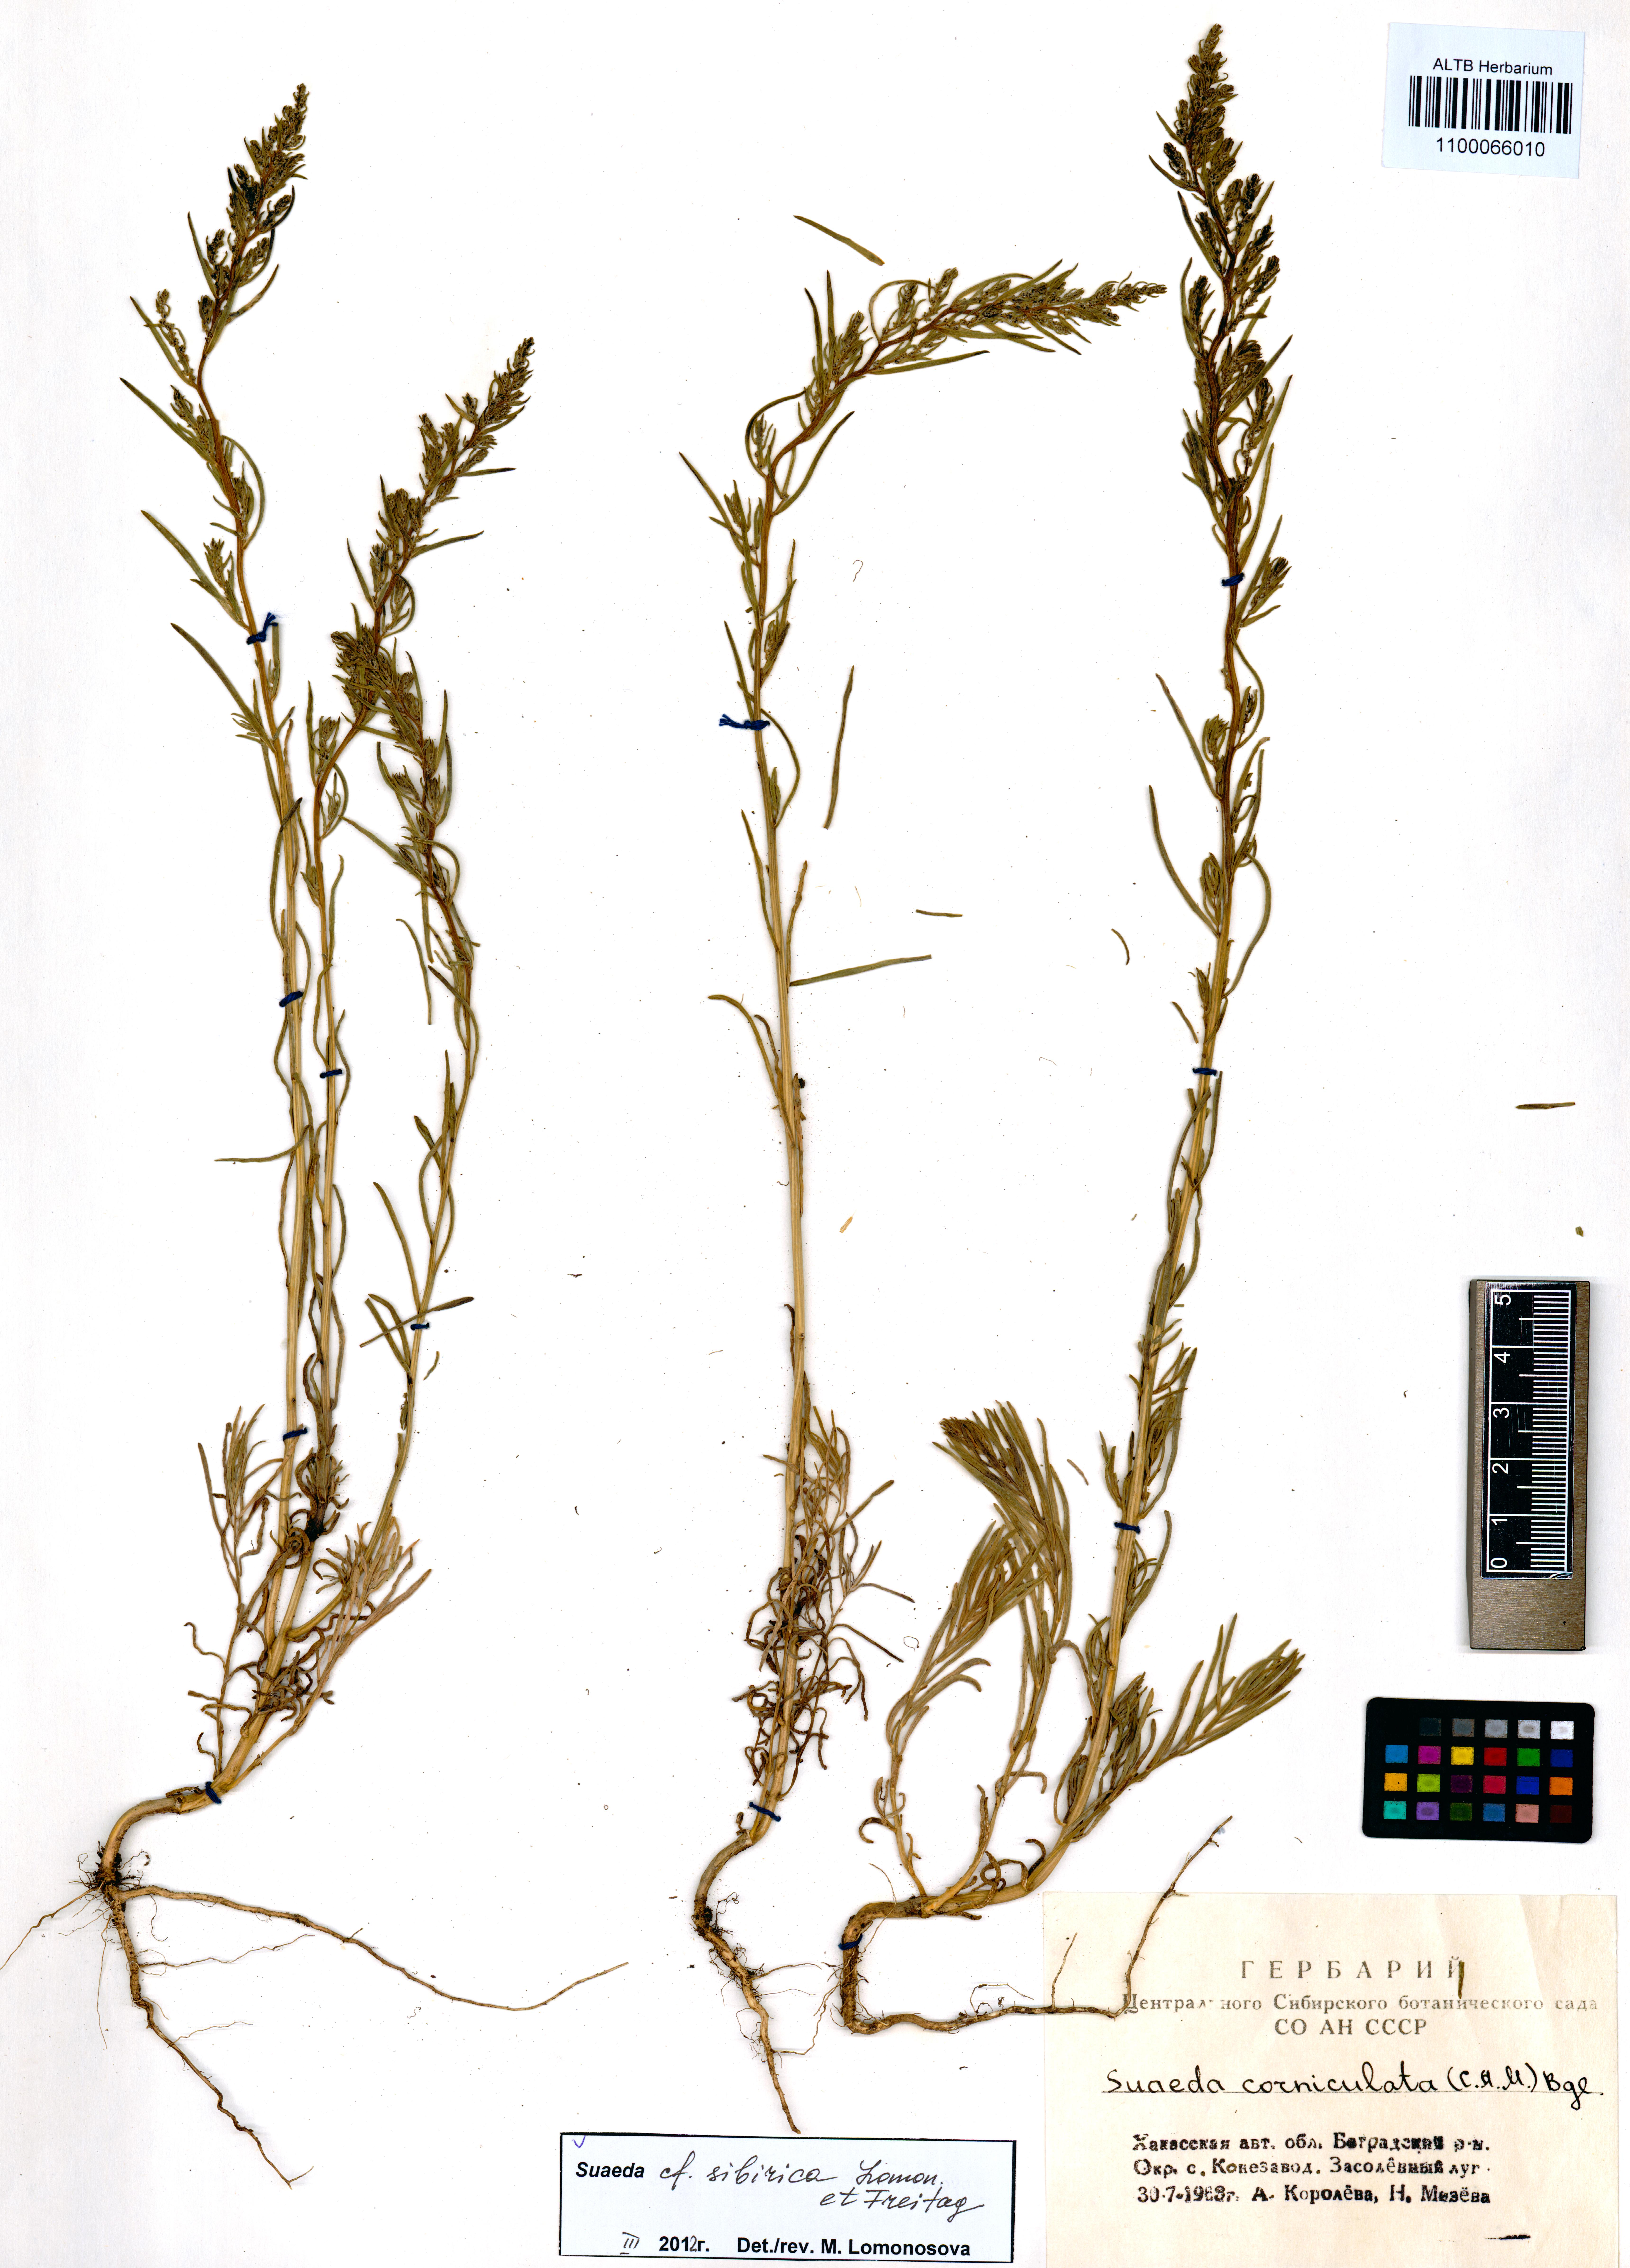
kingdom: Plantae
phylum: Tracheophyta
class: Magnoliopsida
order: Caryophyllales
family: Amaranthaceae
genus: Suaeda
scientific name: Suaeda sibirica
